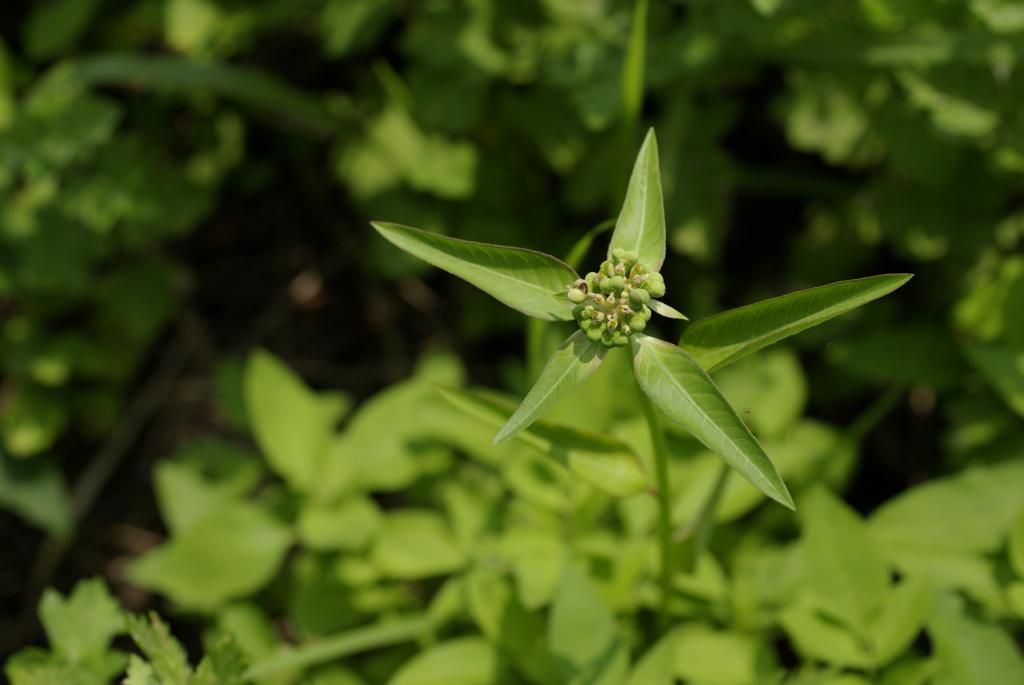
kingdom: Plantae
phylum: Tracheophyta
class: Magnoliopsida
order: Malpighiales
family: Euphorbiaceae
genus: Euphorbia
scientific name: Euphorbia heterophylla
